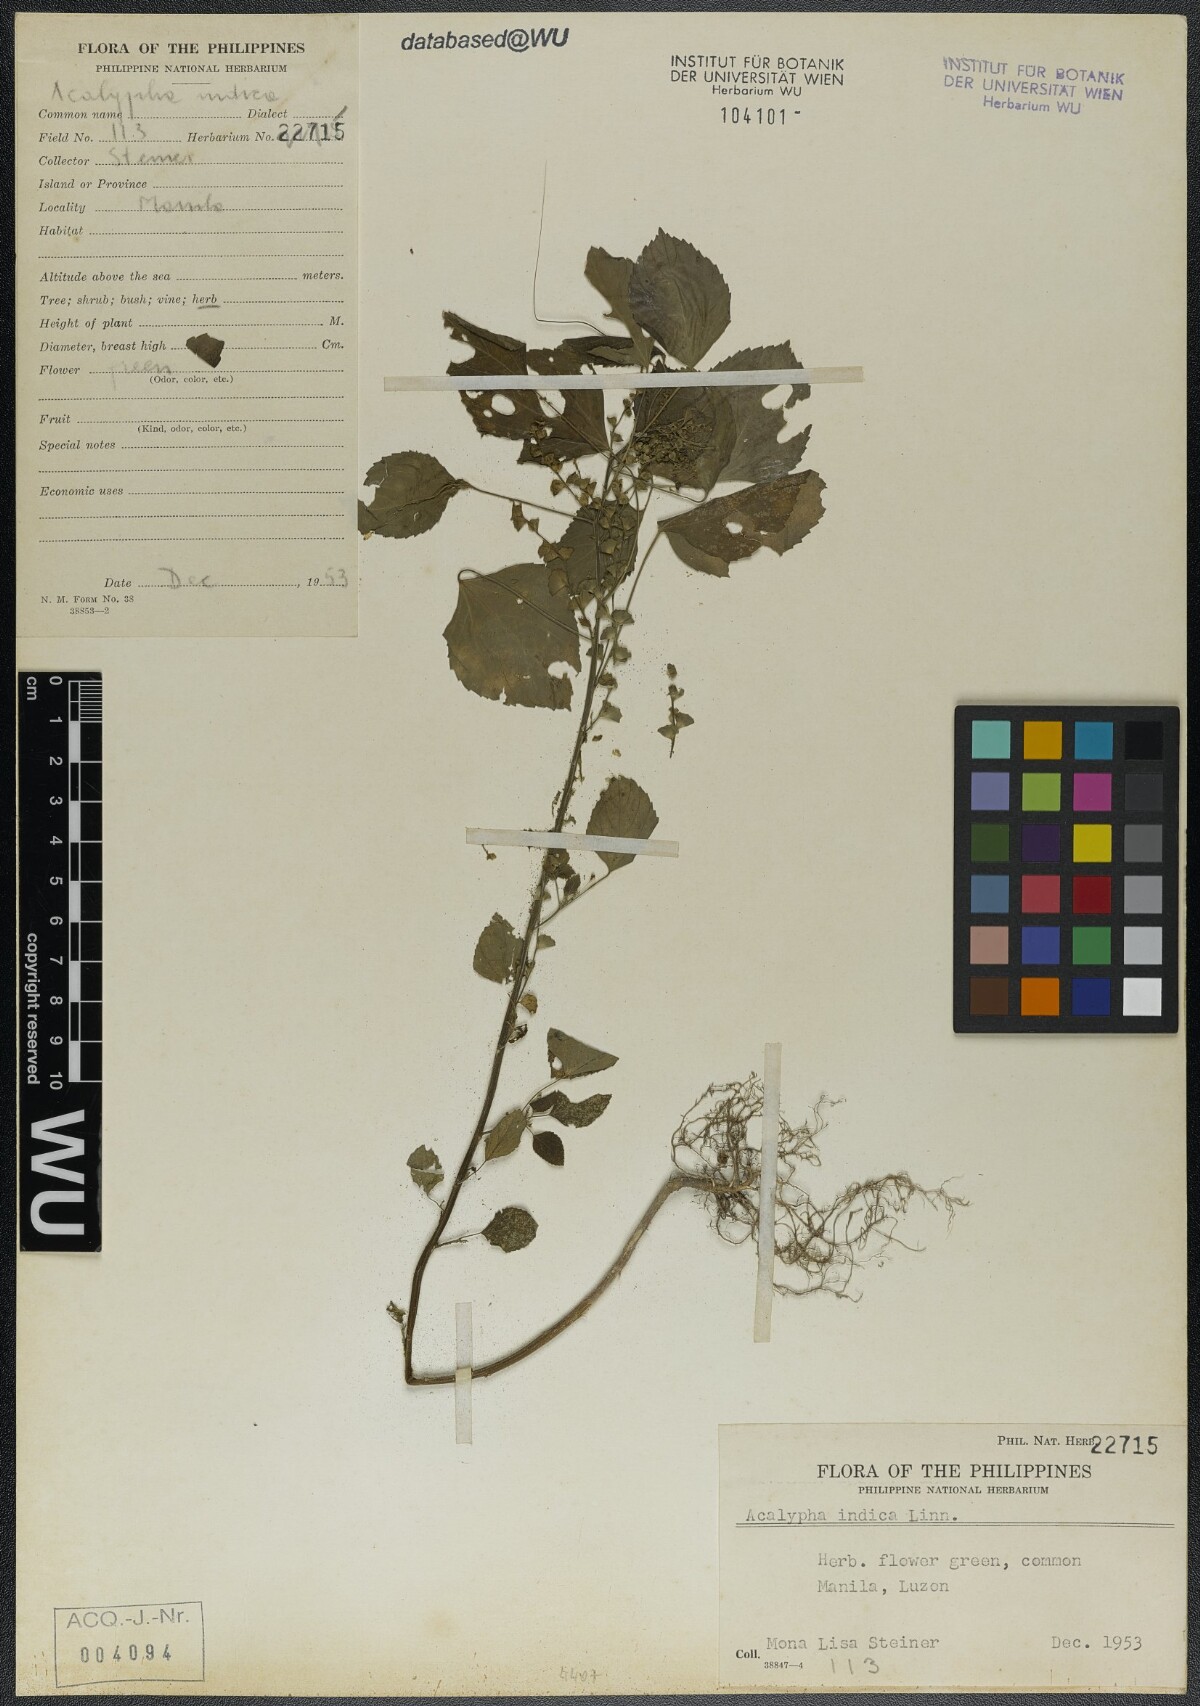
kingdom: Plantae
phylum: Tracheophyta
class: Magnoliopsida
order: Malpighiales
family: Euphorbiaceae
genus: Acalypha
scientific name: Acalypha indica
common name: Indian acalypha
